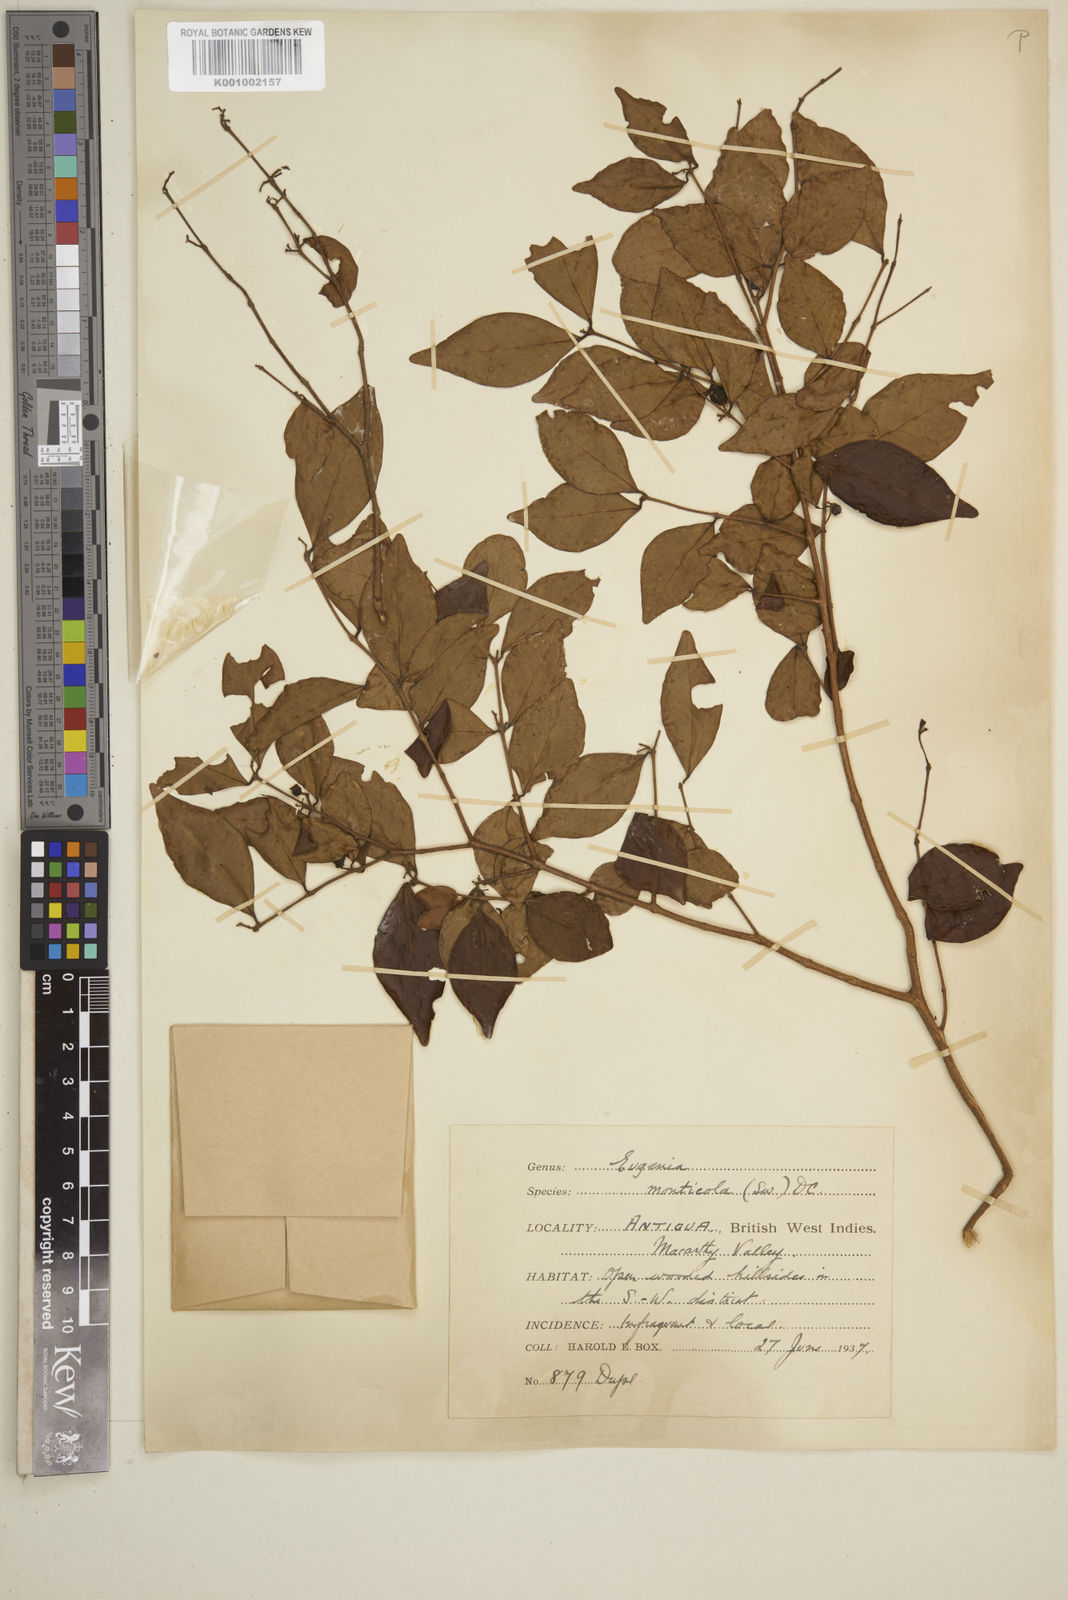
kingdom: Plantae
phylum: Tracheophyta
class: Magnoliopsida
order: Myrtales
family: Myrtaceae
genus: Eugenia
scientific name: Eugenia monticola
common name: Birds berry
